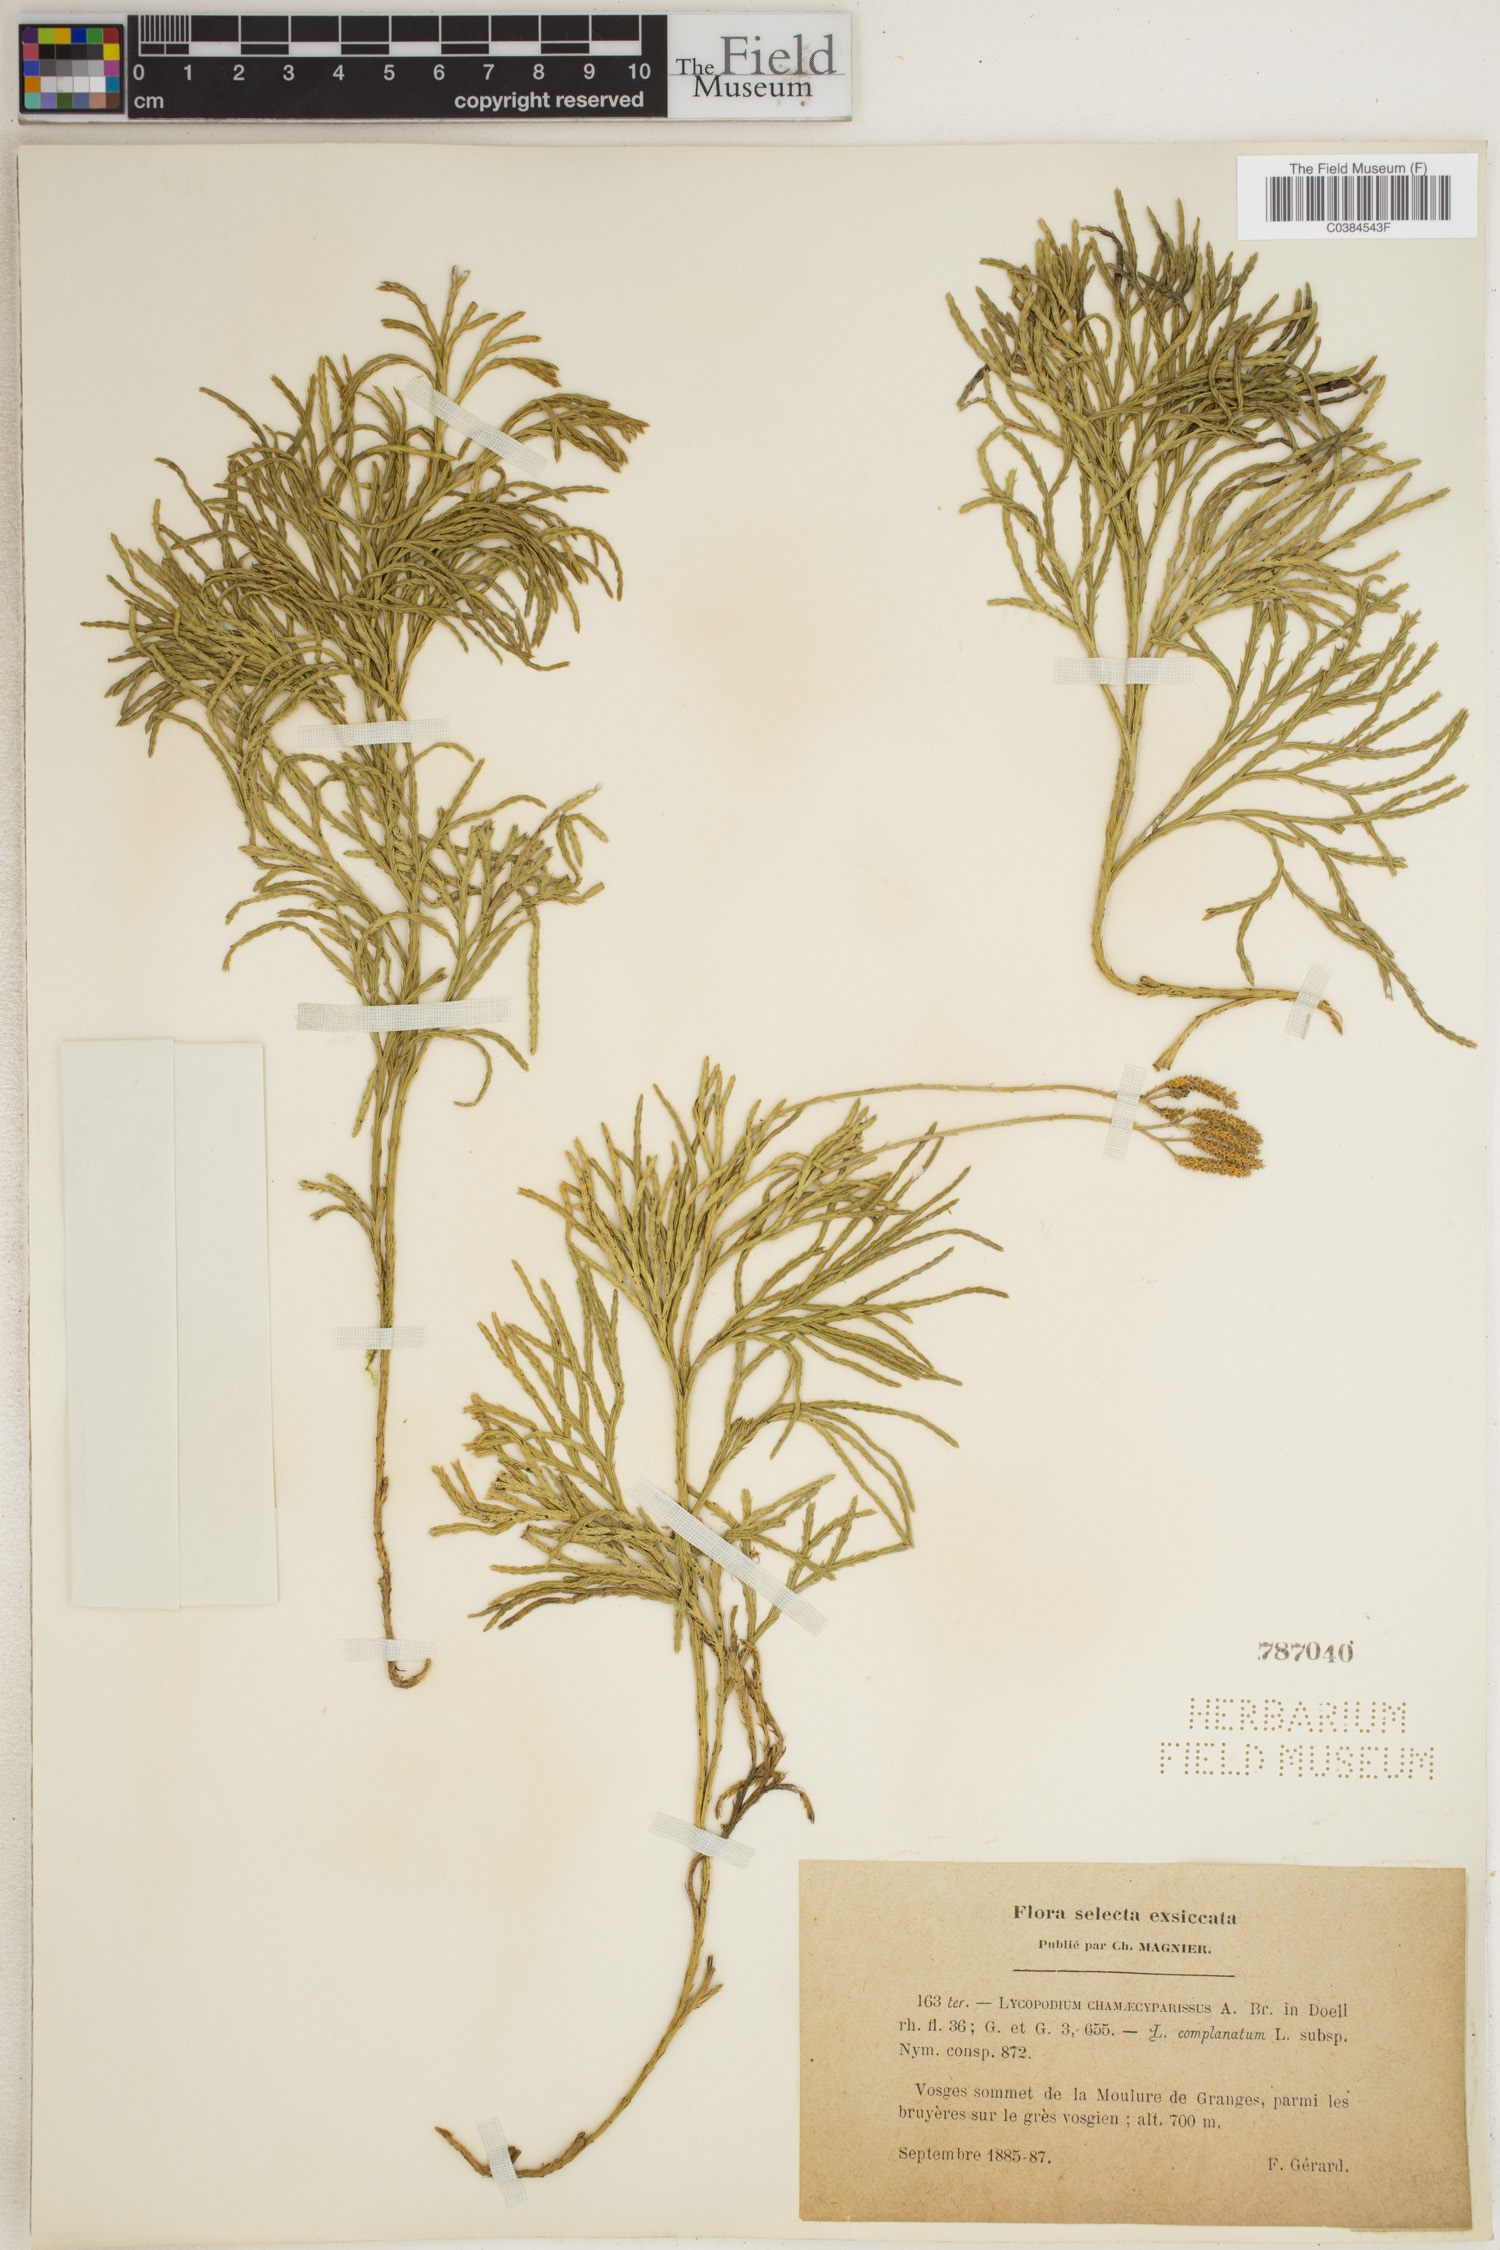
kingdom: Plantae
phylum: Tracheophyta
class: Lycopodiopsida
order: Lycopodiales
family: Lycopodiaceae
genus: Diphasiastrum
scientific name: Diphasiastrum tristachyum
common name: Blue ground-cedar
